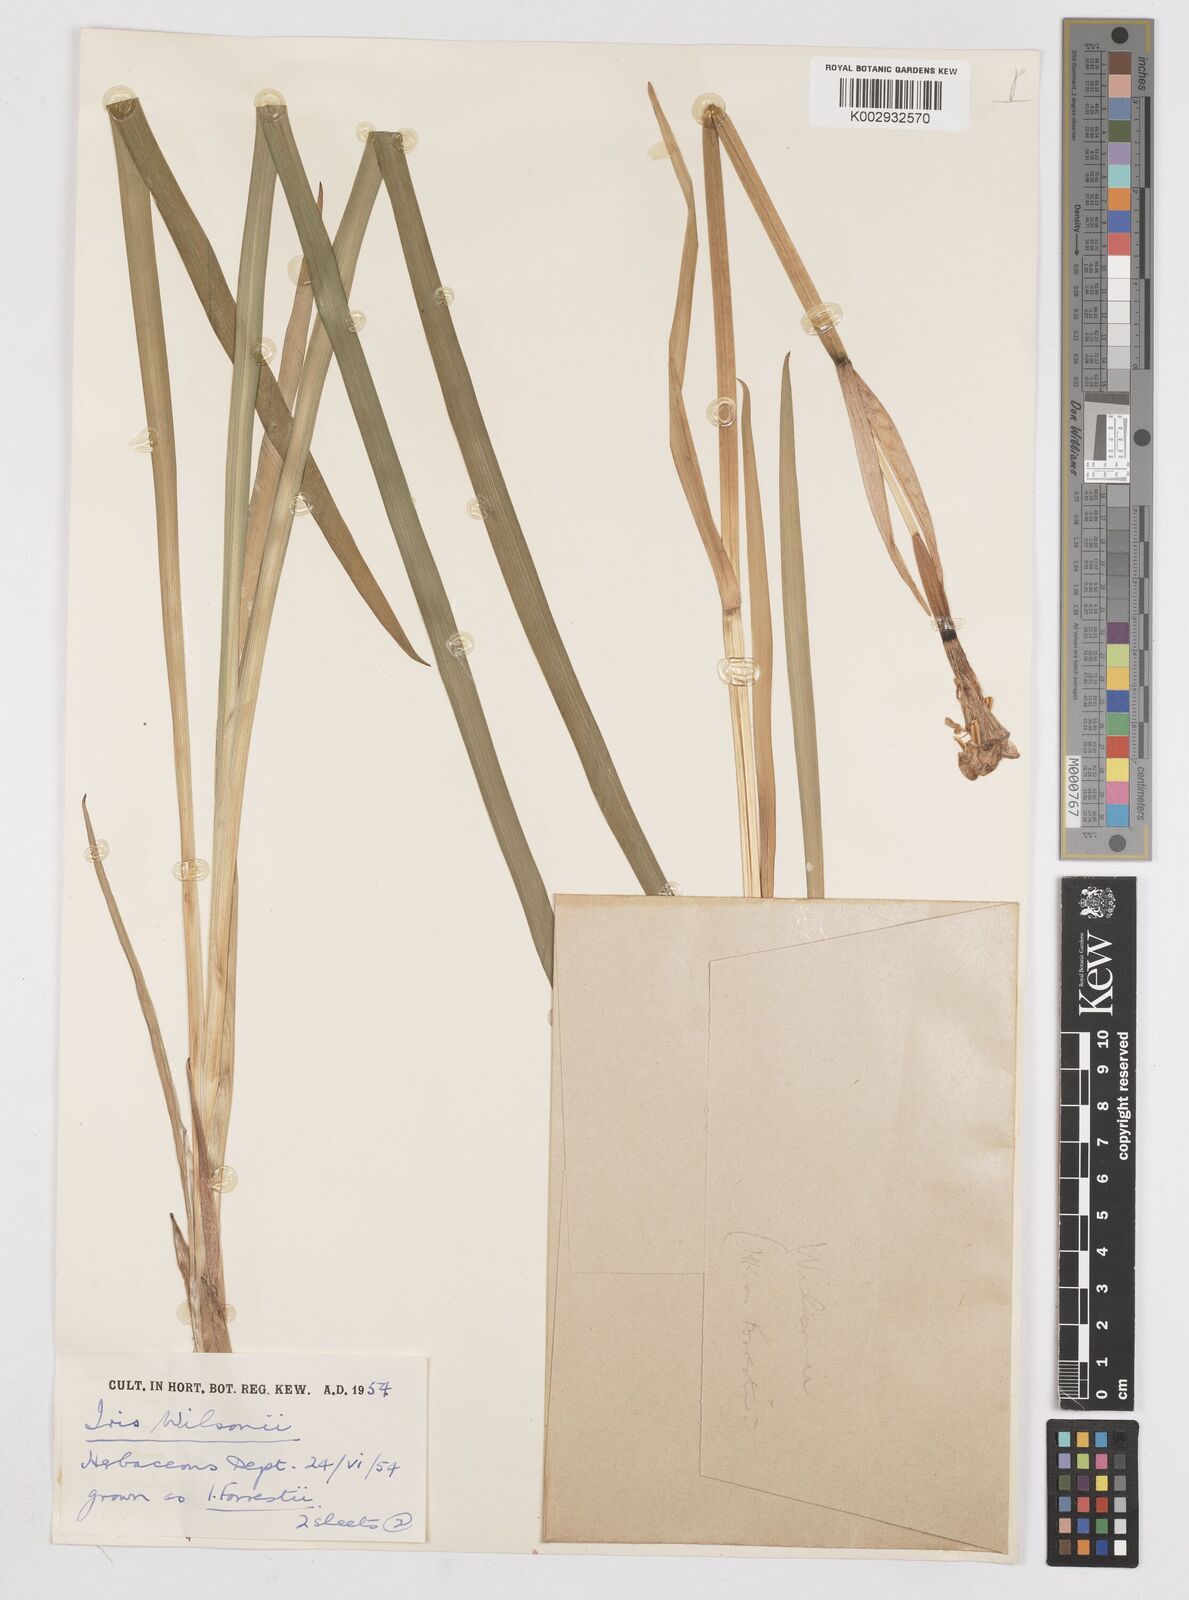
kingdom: Plantae
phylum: Tracheophyta
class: Liliopsida
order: Asparagales
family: Iridaceae
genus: Iris
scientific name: Iris wilsonii
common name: Yellow-flower iris
